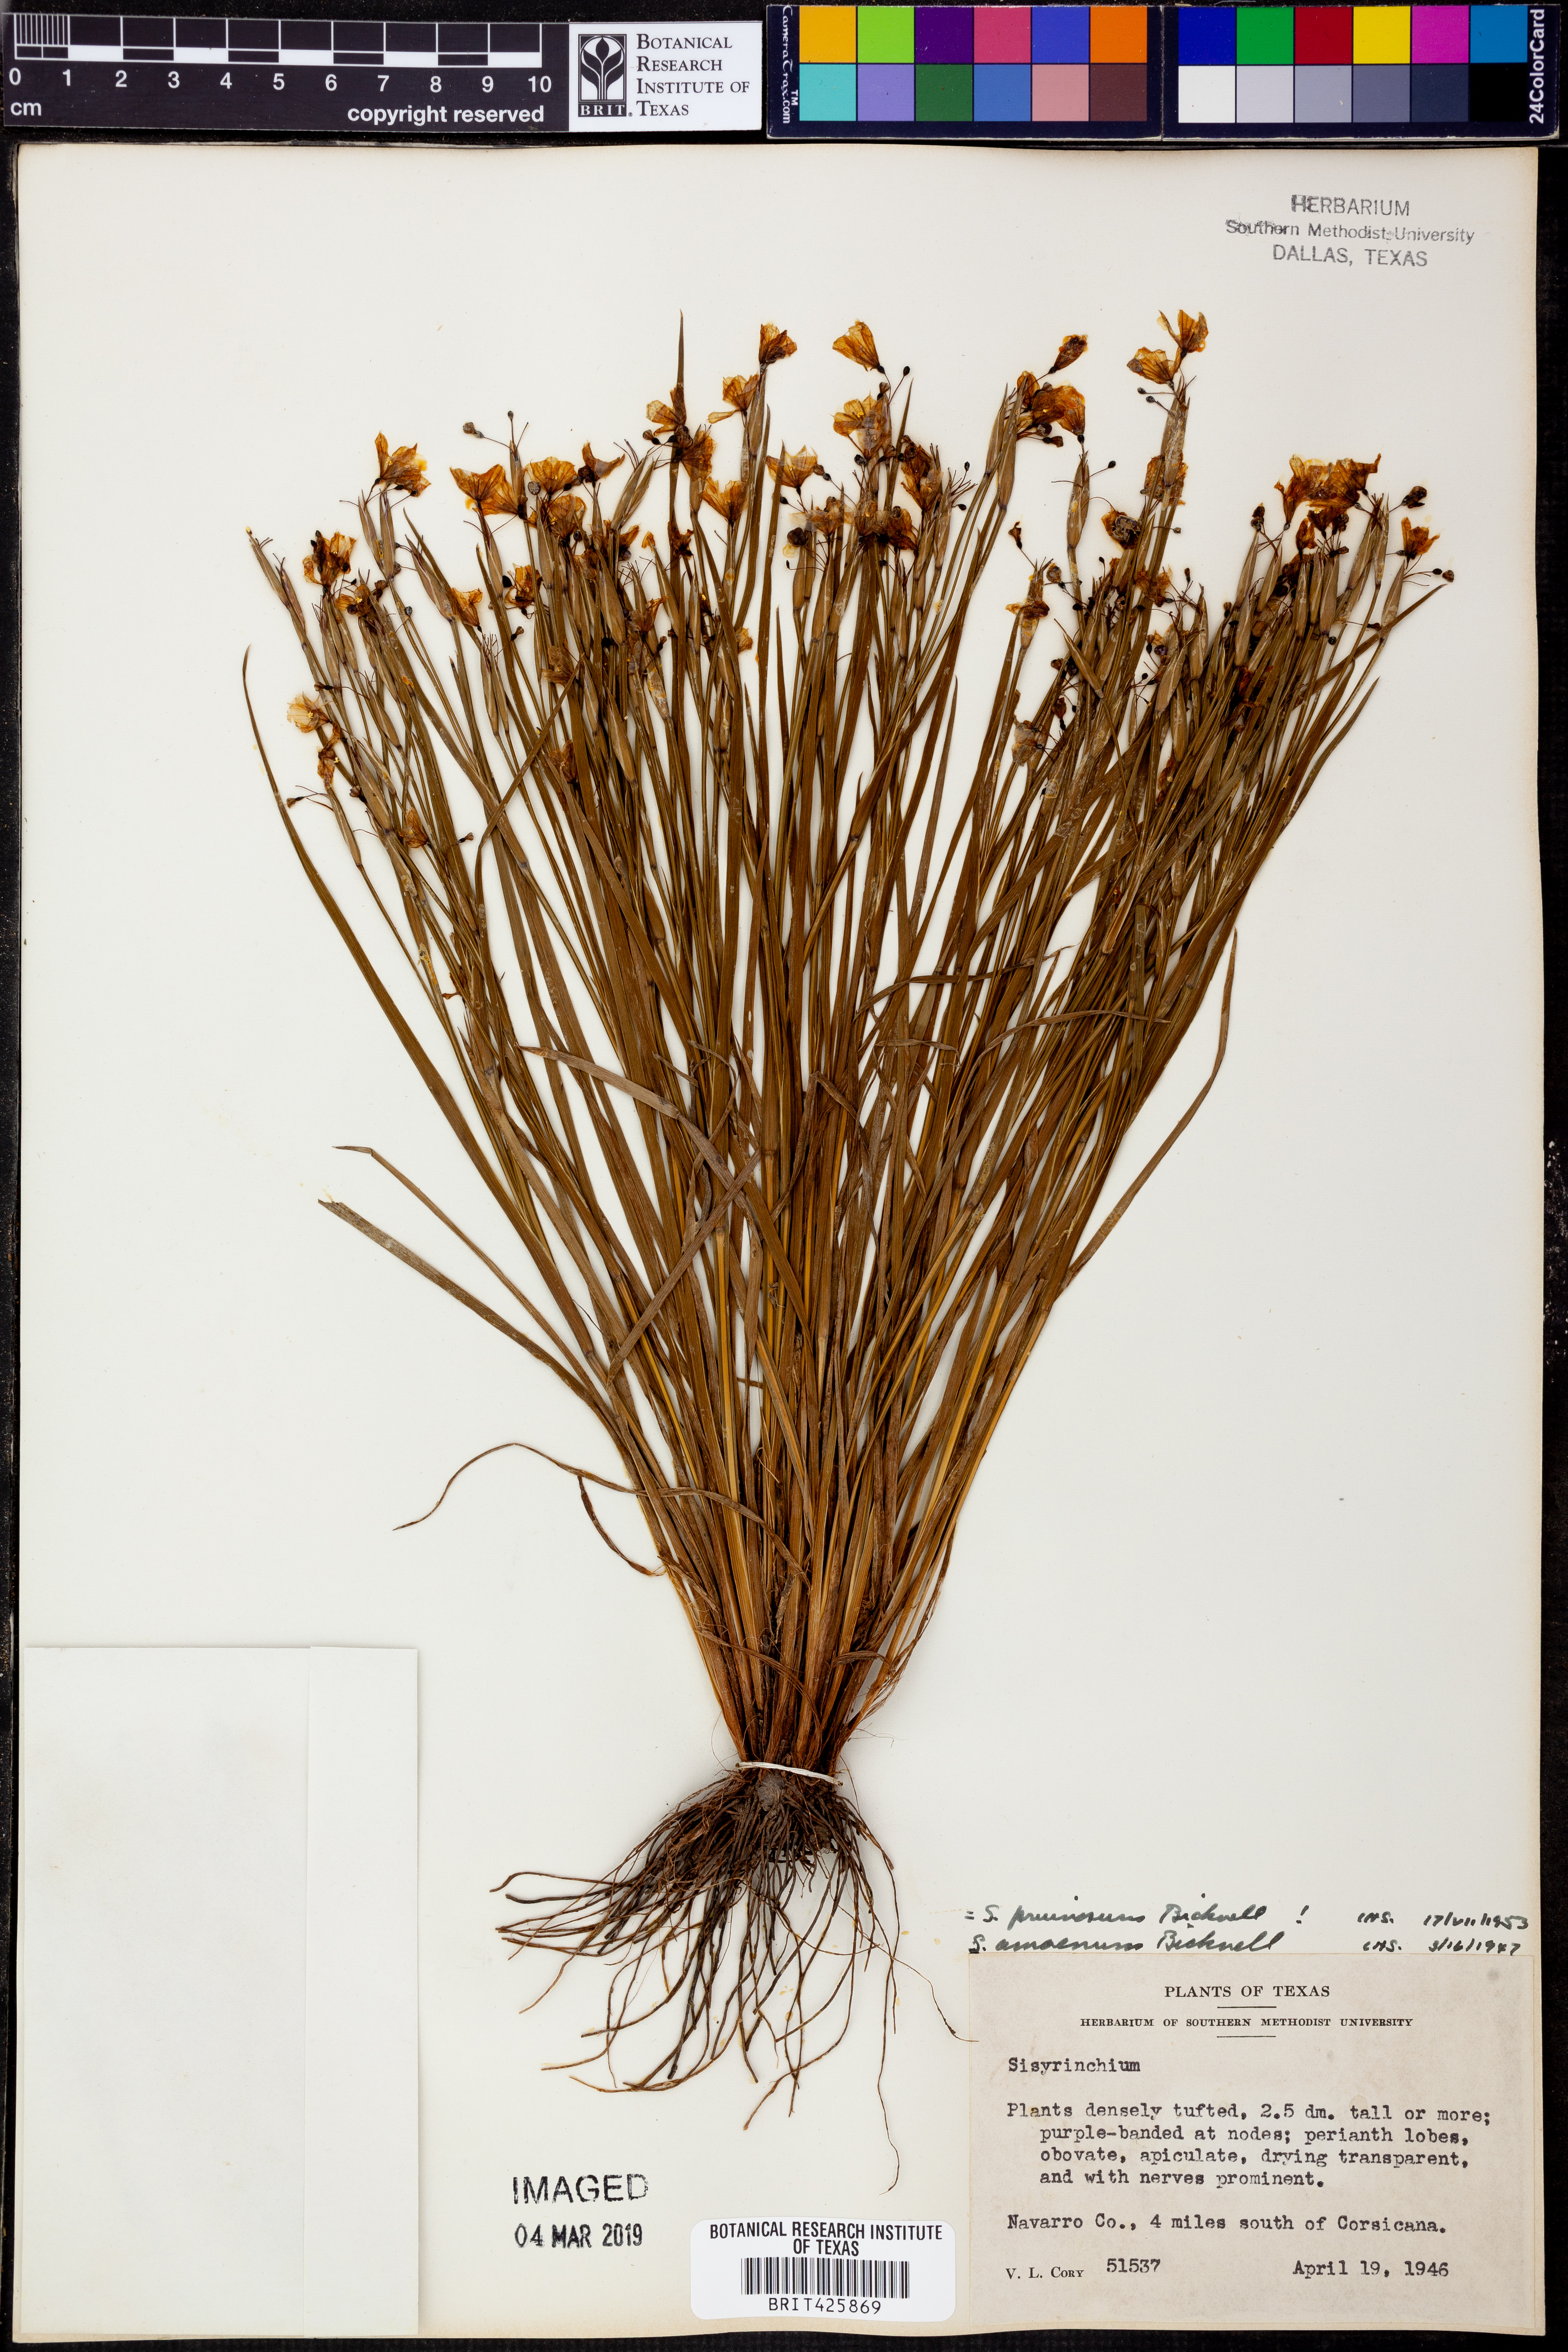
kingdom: Plantae
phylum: Tracheophyta
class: Liliopsida
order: Asparagales
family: Iridaceae
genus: Sisyrinchium
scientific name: Sisyrinchium pruinosum
